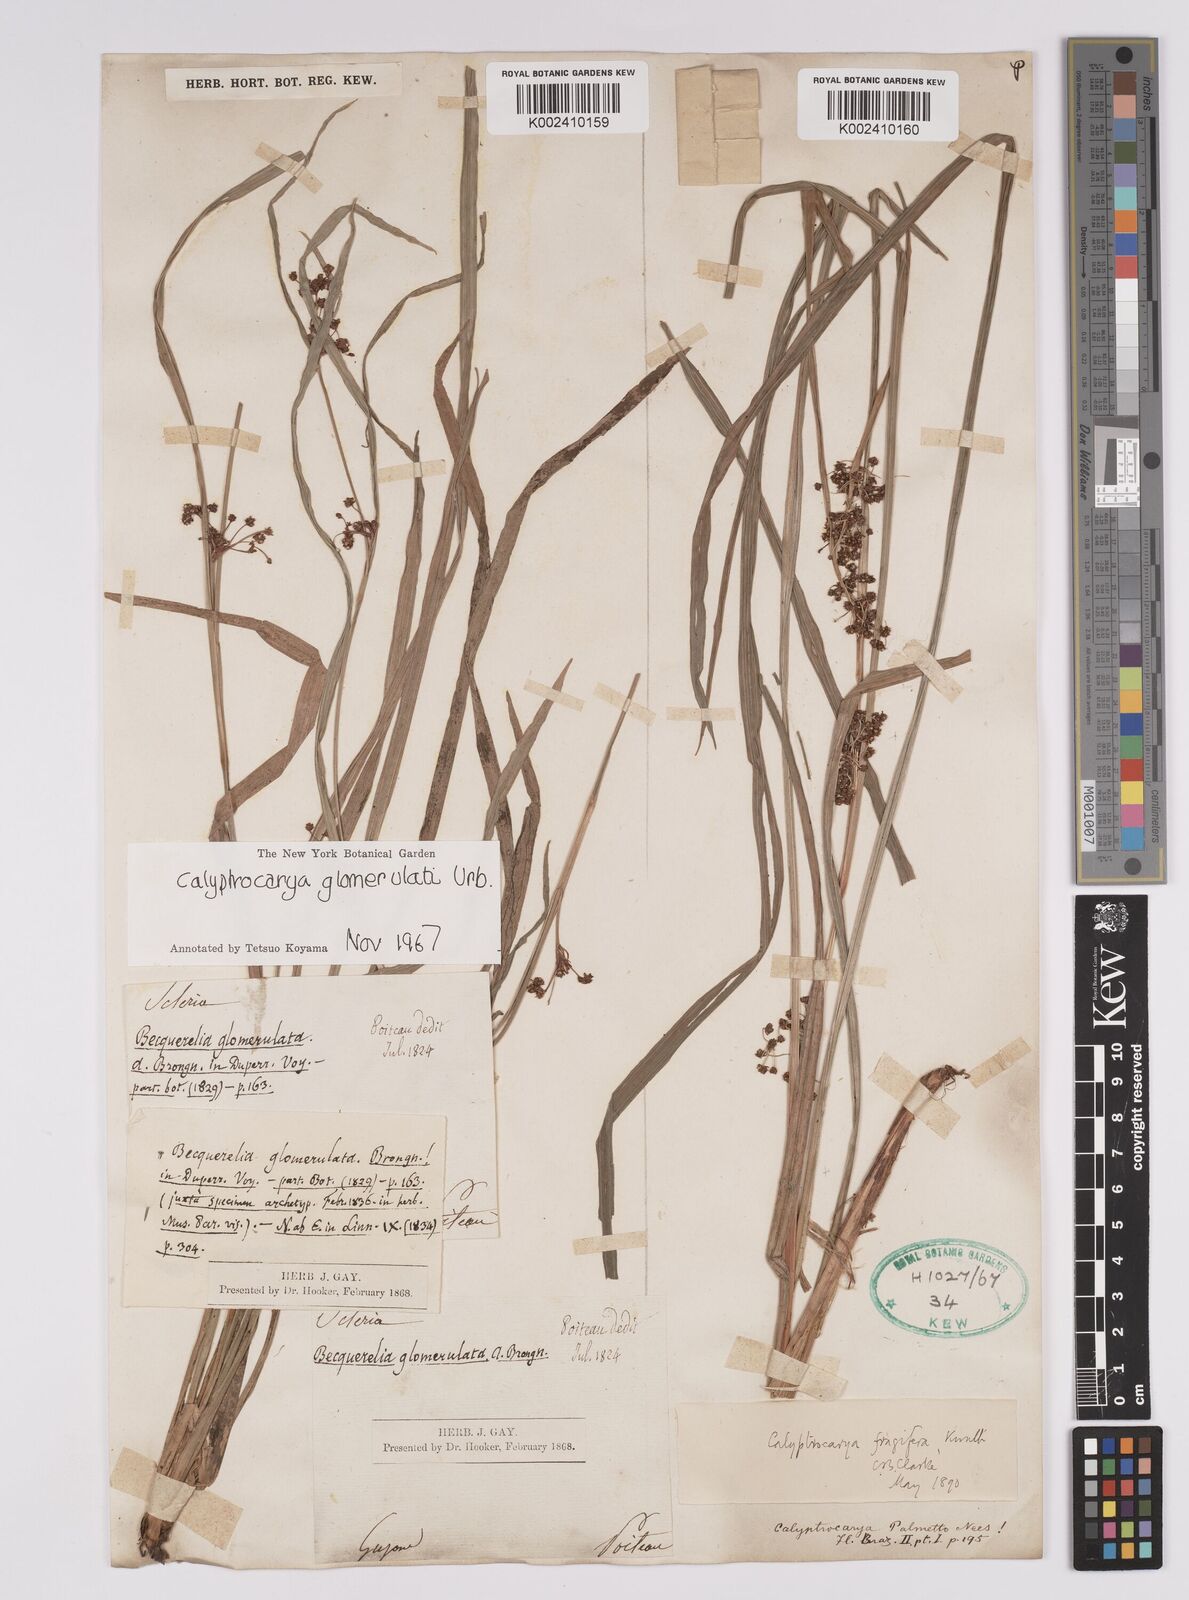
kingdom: Plantae
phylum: Tracheophyta
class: Liliopsida
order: Poales
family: Cyperaceae
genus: Calyptrocarya
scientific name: Calyptrocarya glomerulata
